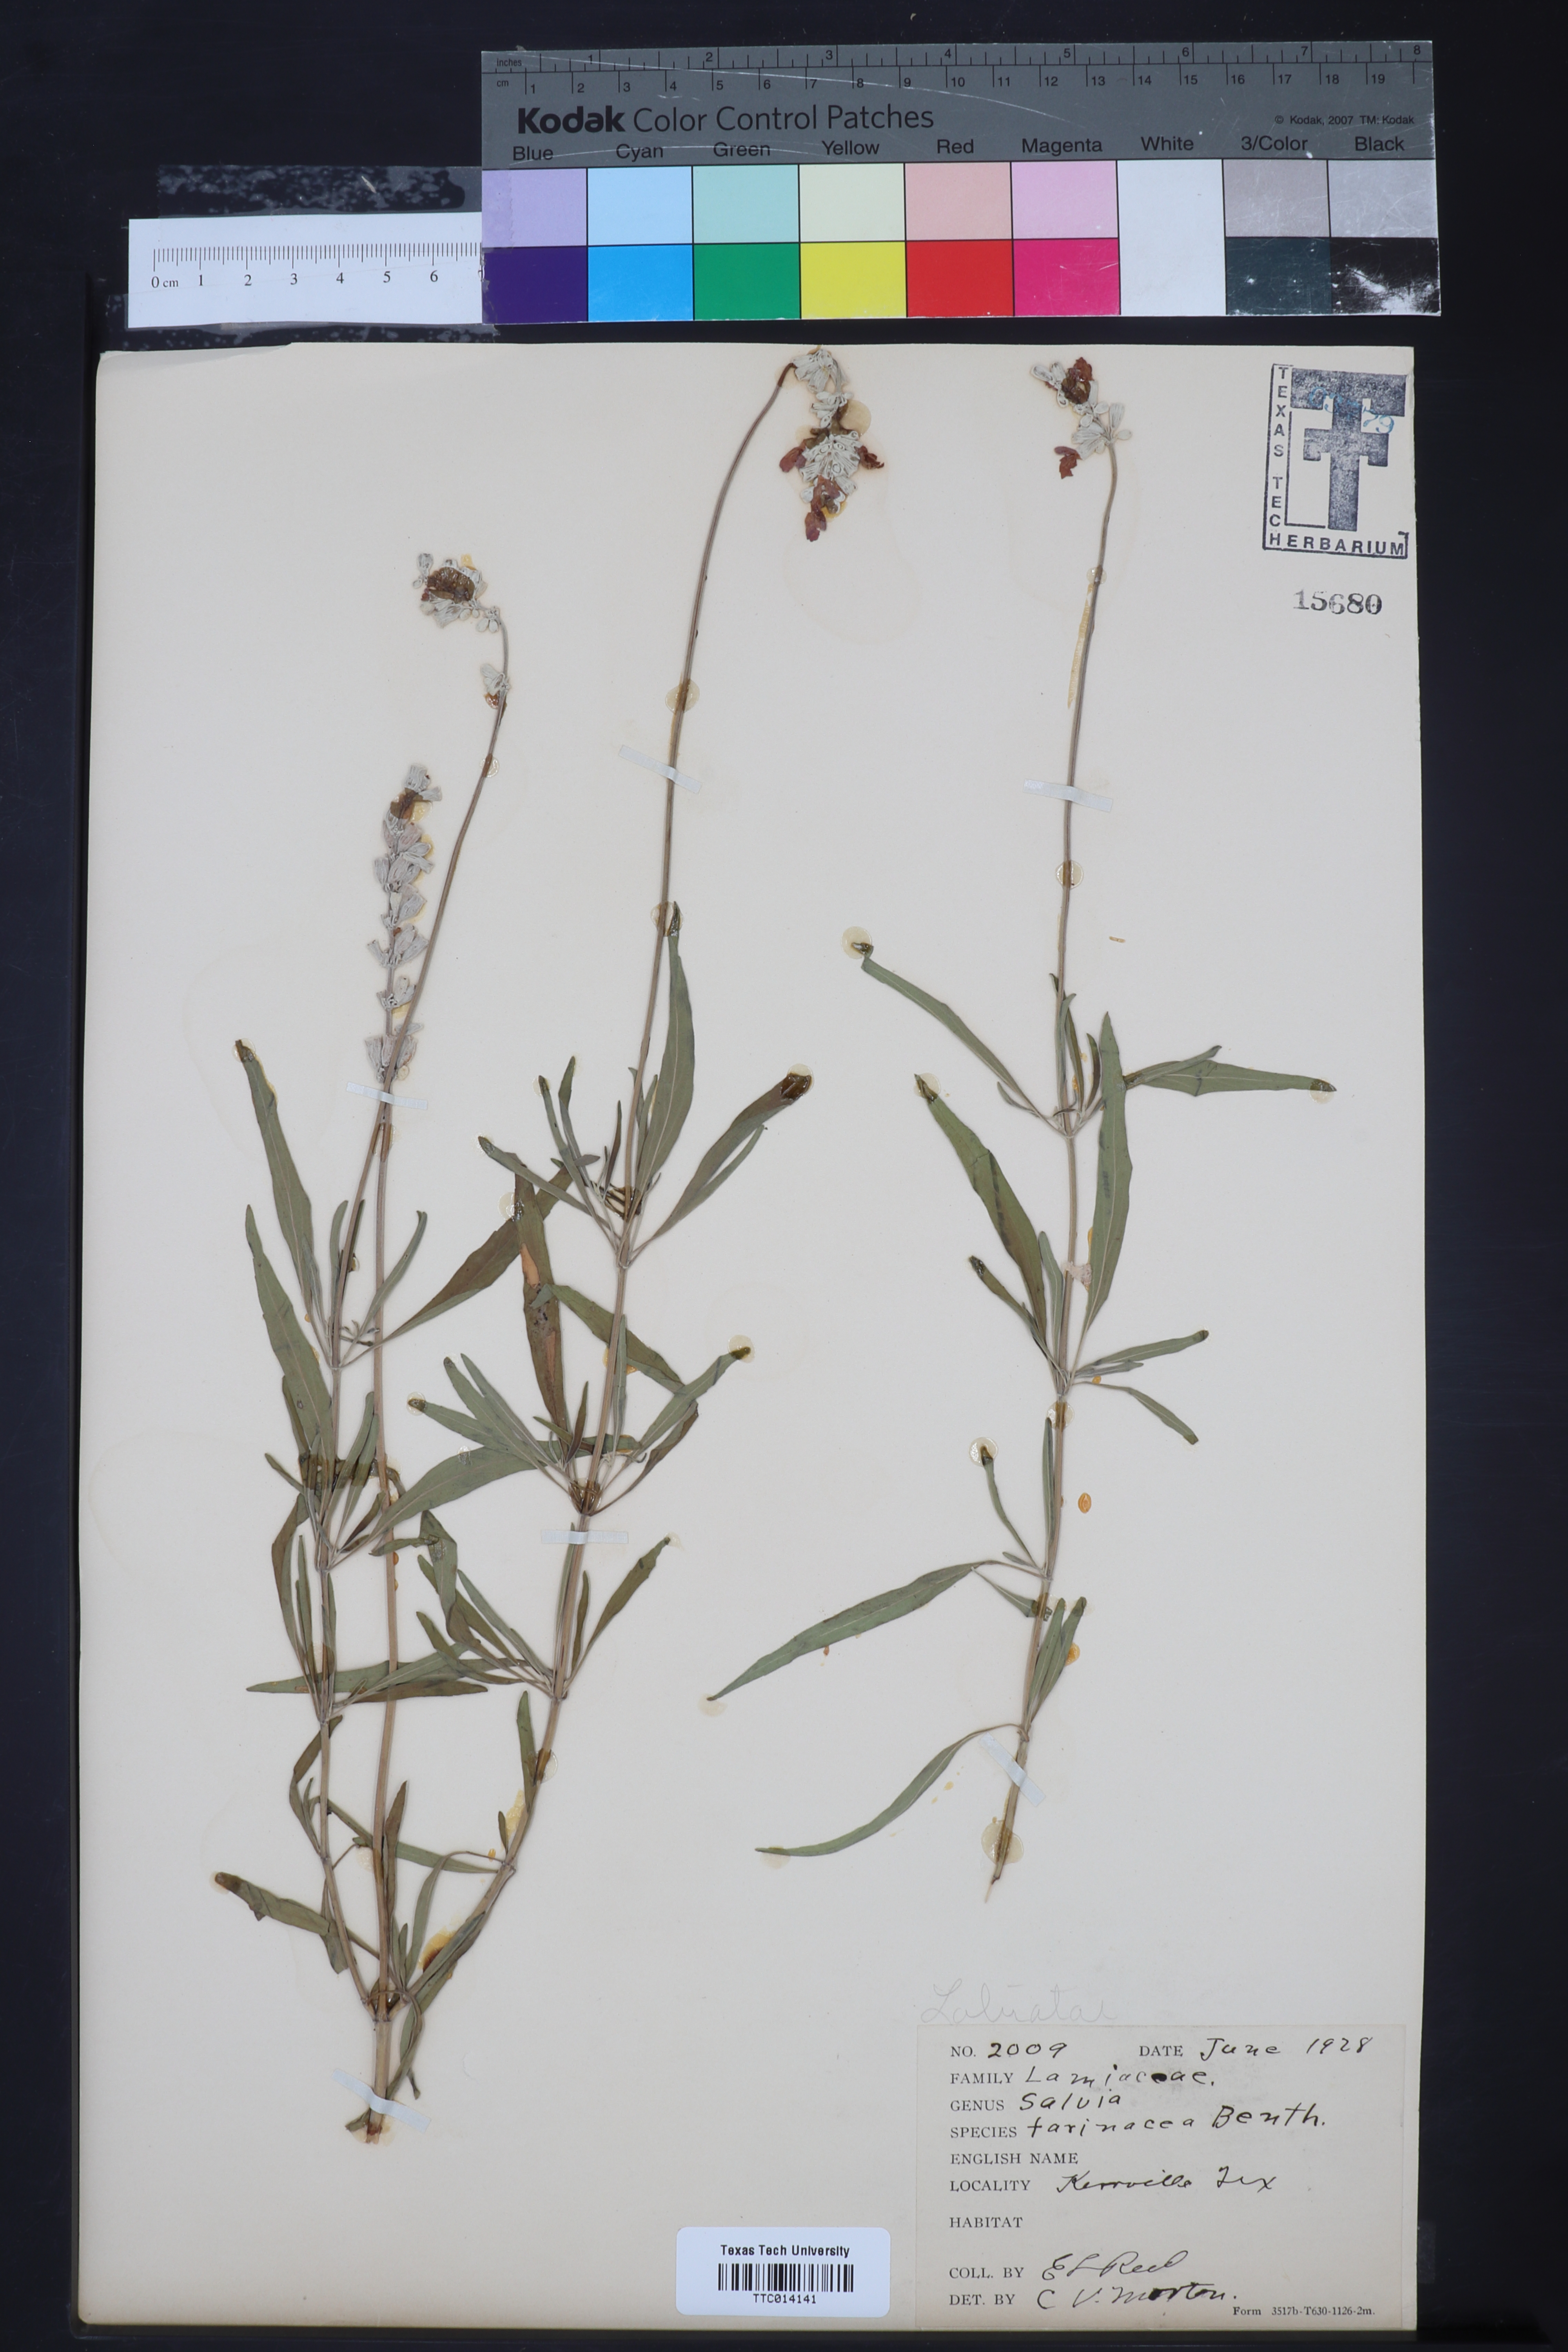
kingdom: Plantae
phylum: Tracheophyta
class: Magnoliopsida
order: Lamiales
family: Lamiaceae
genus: Salvia
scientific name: Salvia farinacea
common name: Mealy sage
